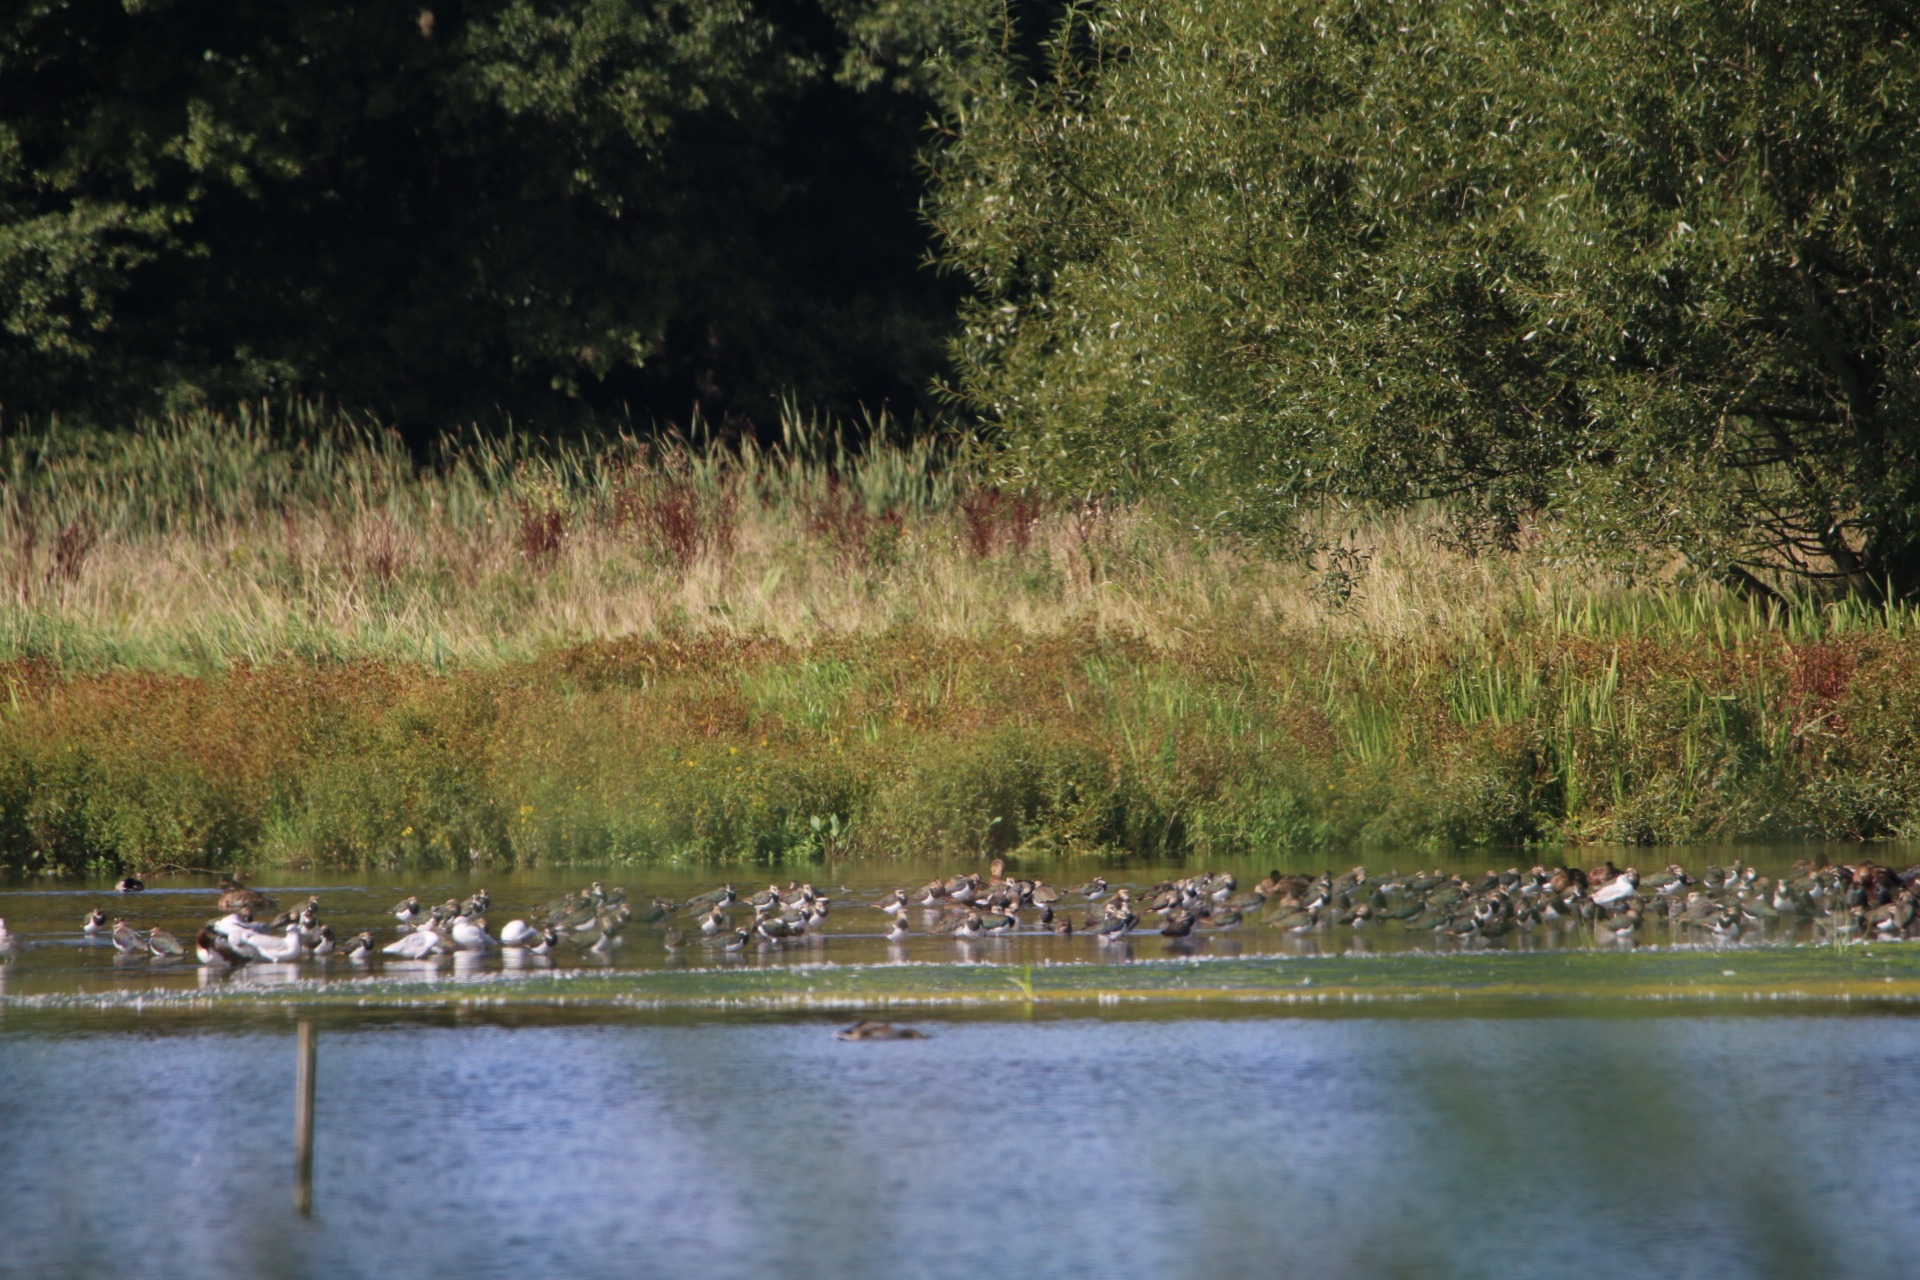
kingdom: Animalia
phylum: Chordata
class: Aves
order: Charadriiformes
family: Charadriidae
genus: Vanellus
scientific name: Vanellus vanellus
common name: Vibe
